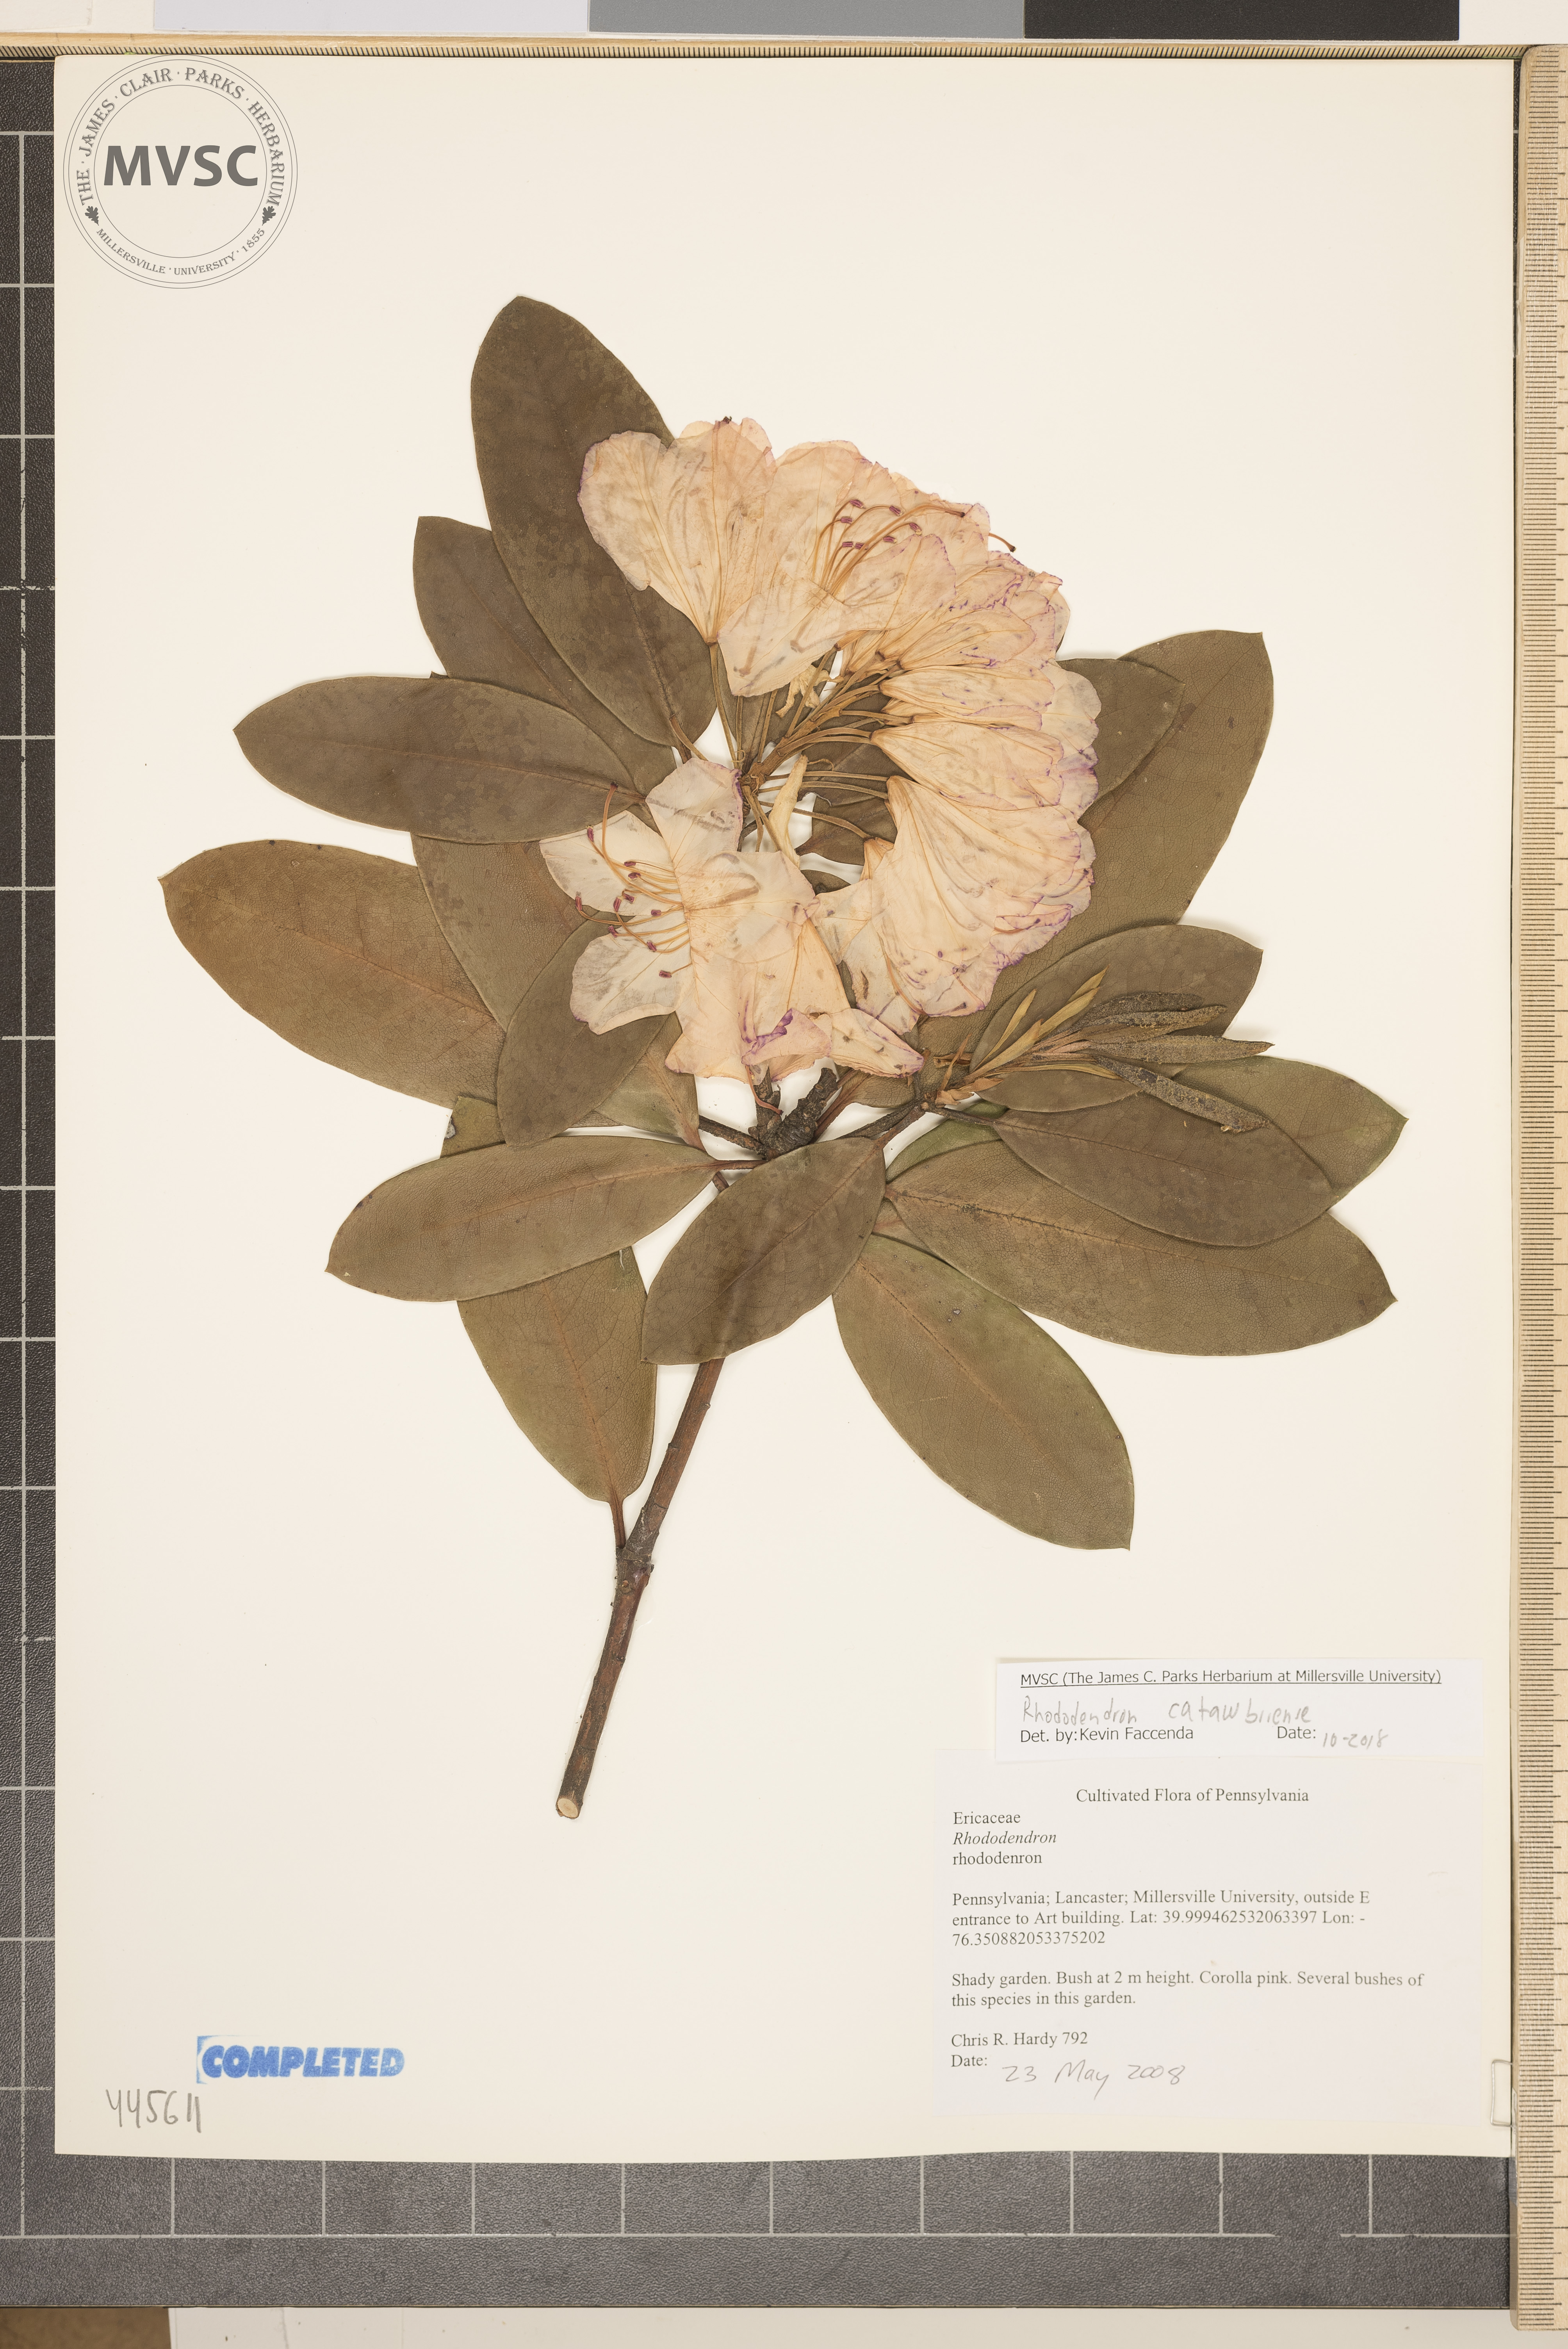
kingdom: Plantae
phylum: Tracheophyta
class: Magnoliopsida
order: Ericales
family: Ericaceae
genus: Rhododendron
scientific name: Rhododendron catawbiense
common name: Catawba rhododendron
